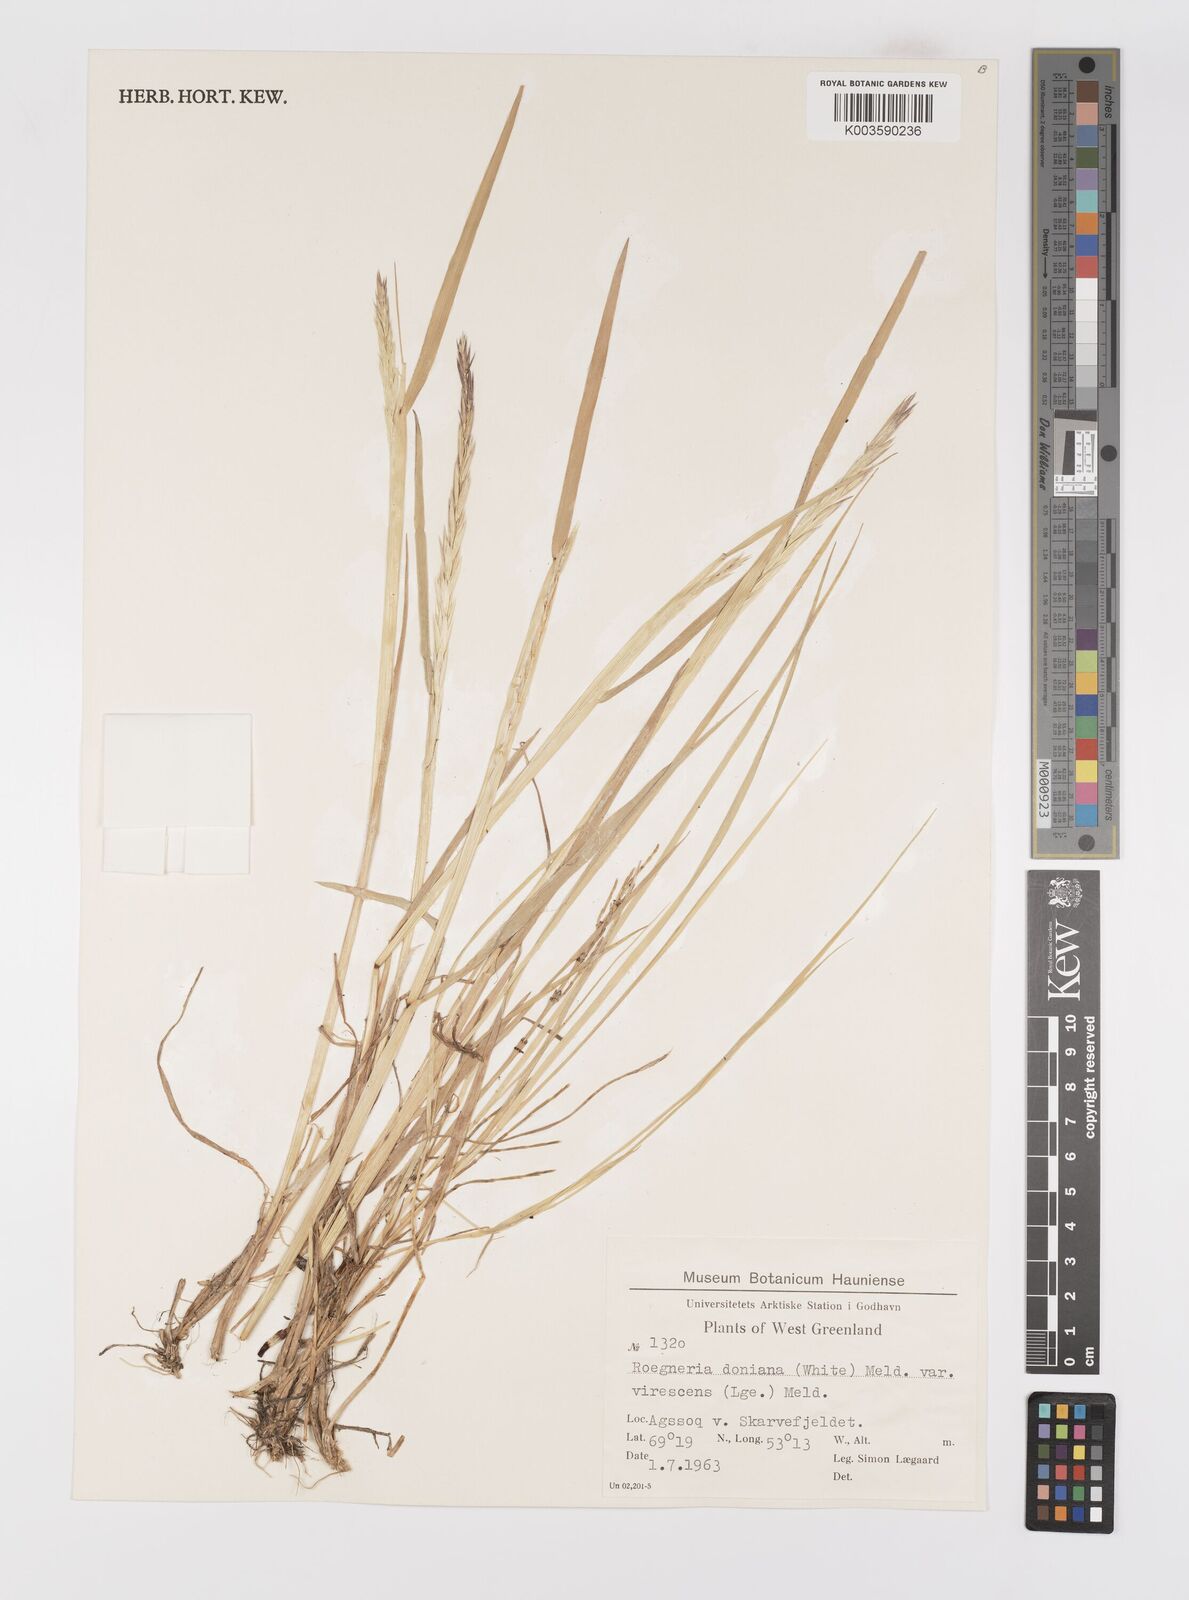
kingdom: Plantae
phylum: Tracheophyta
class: Liliopsida
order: Poales
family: Poaceae
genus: Elymus
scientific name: Elymus
